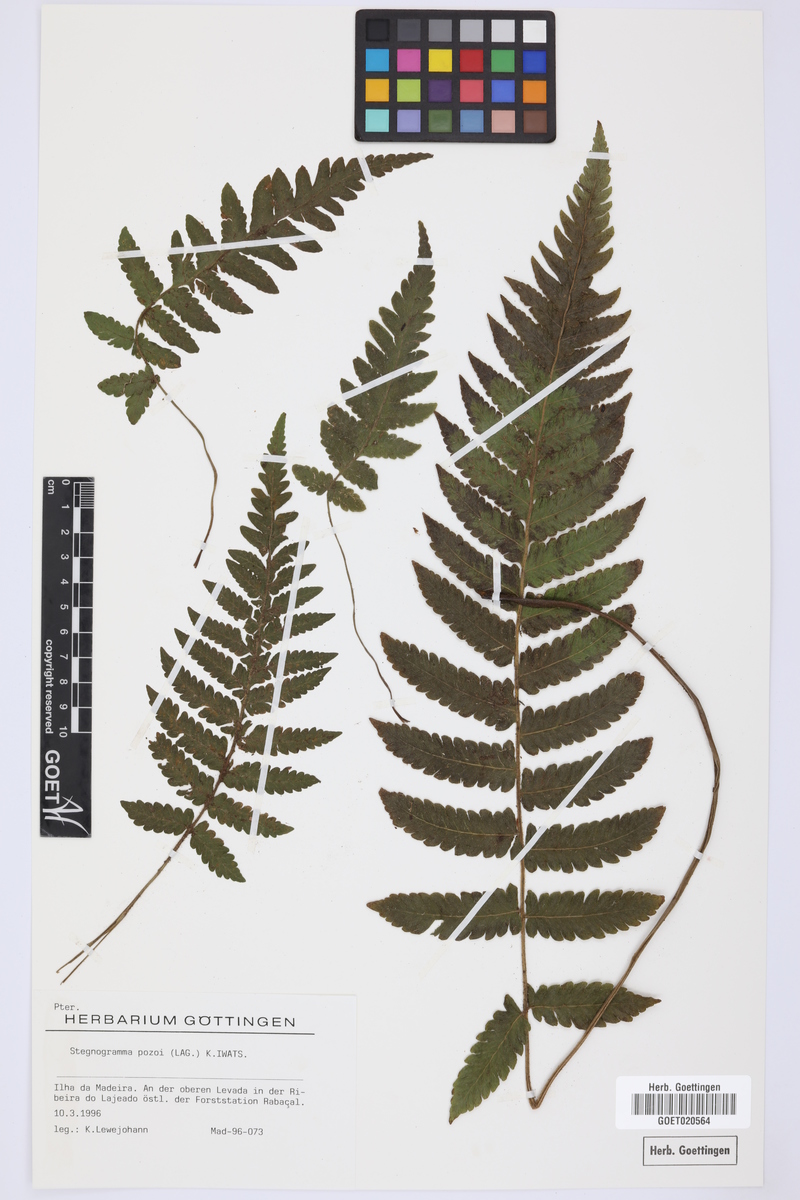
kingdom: Plantae
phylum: Tracheophyta
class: Polypodiopsida
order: Polypodiales
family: Thelypteridaceae
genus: Leptogramma
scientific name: Leptogramma pozoi
